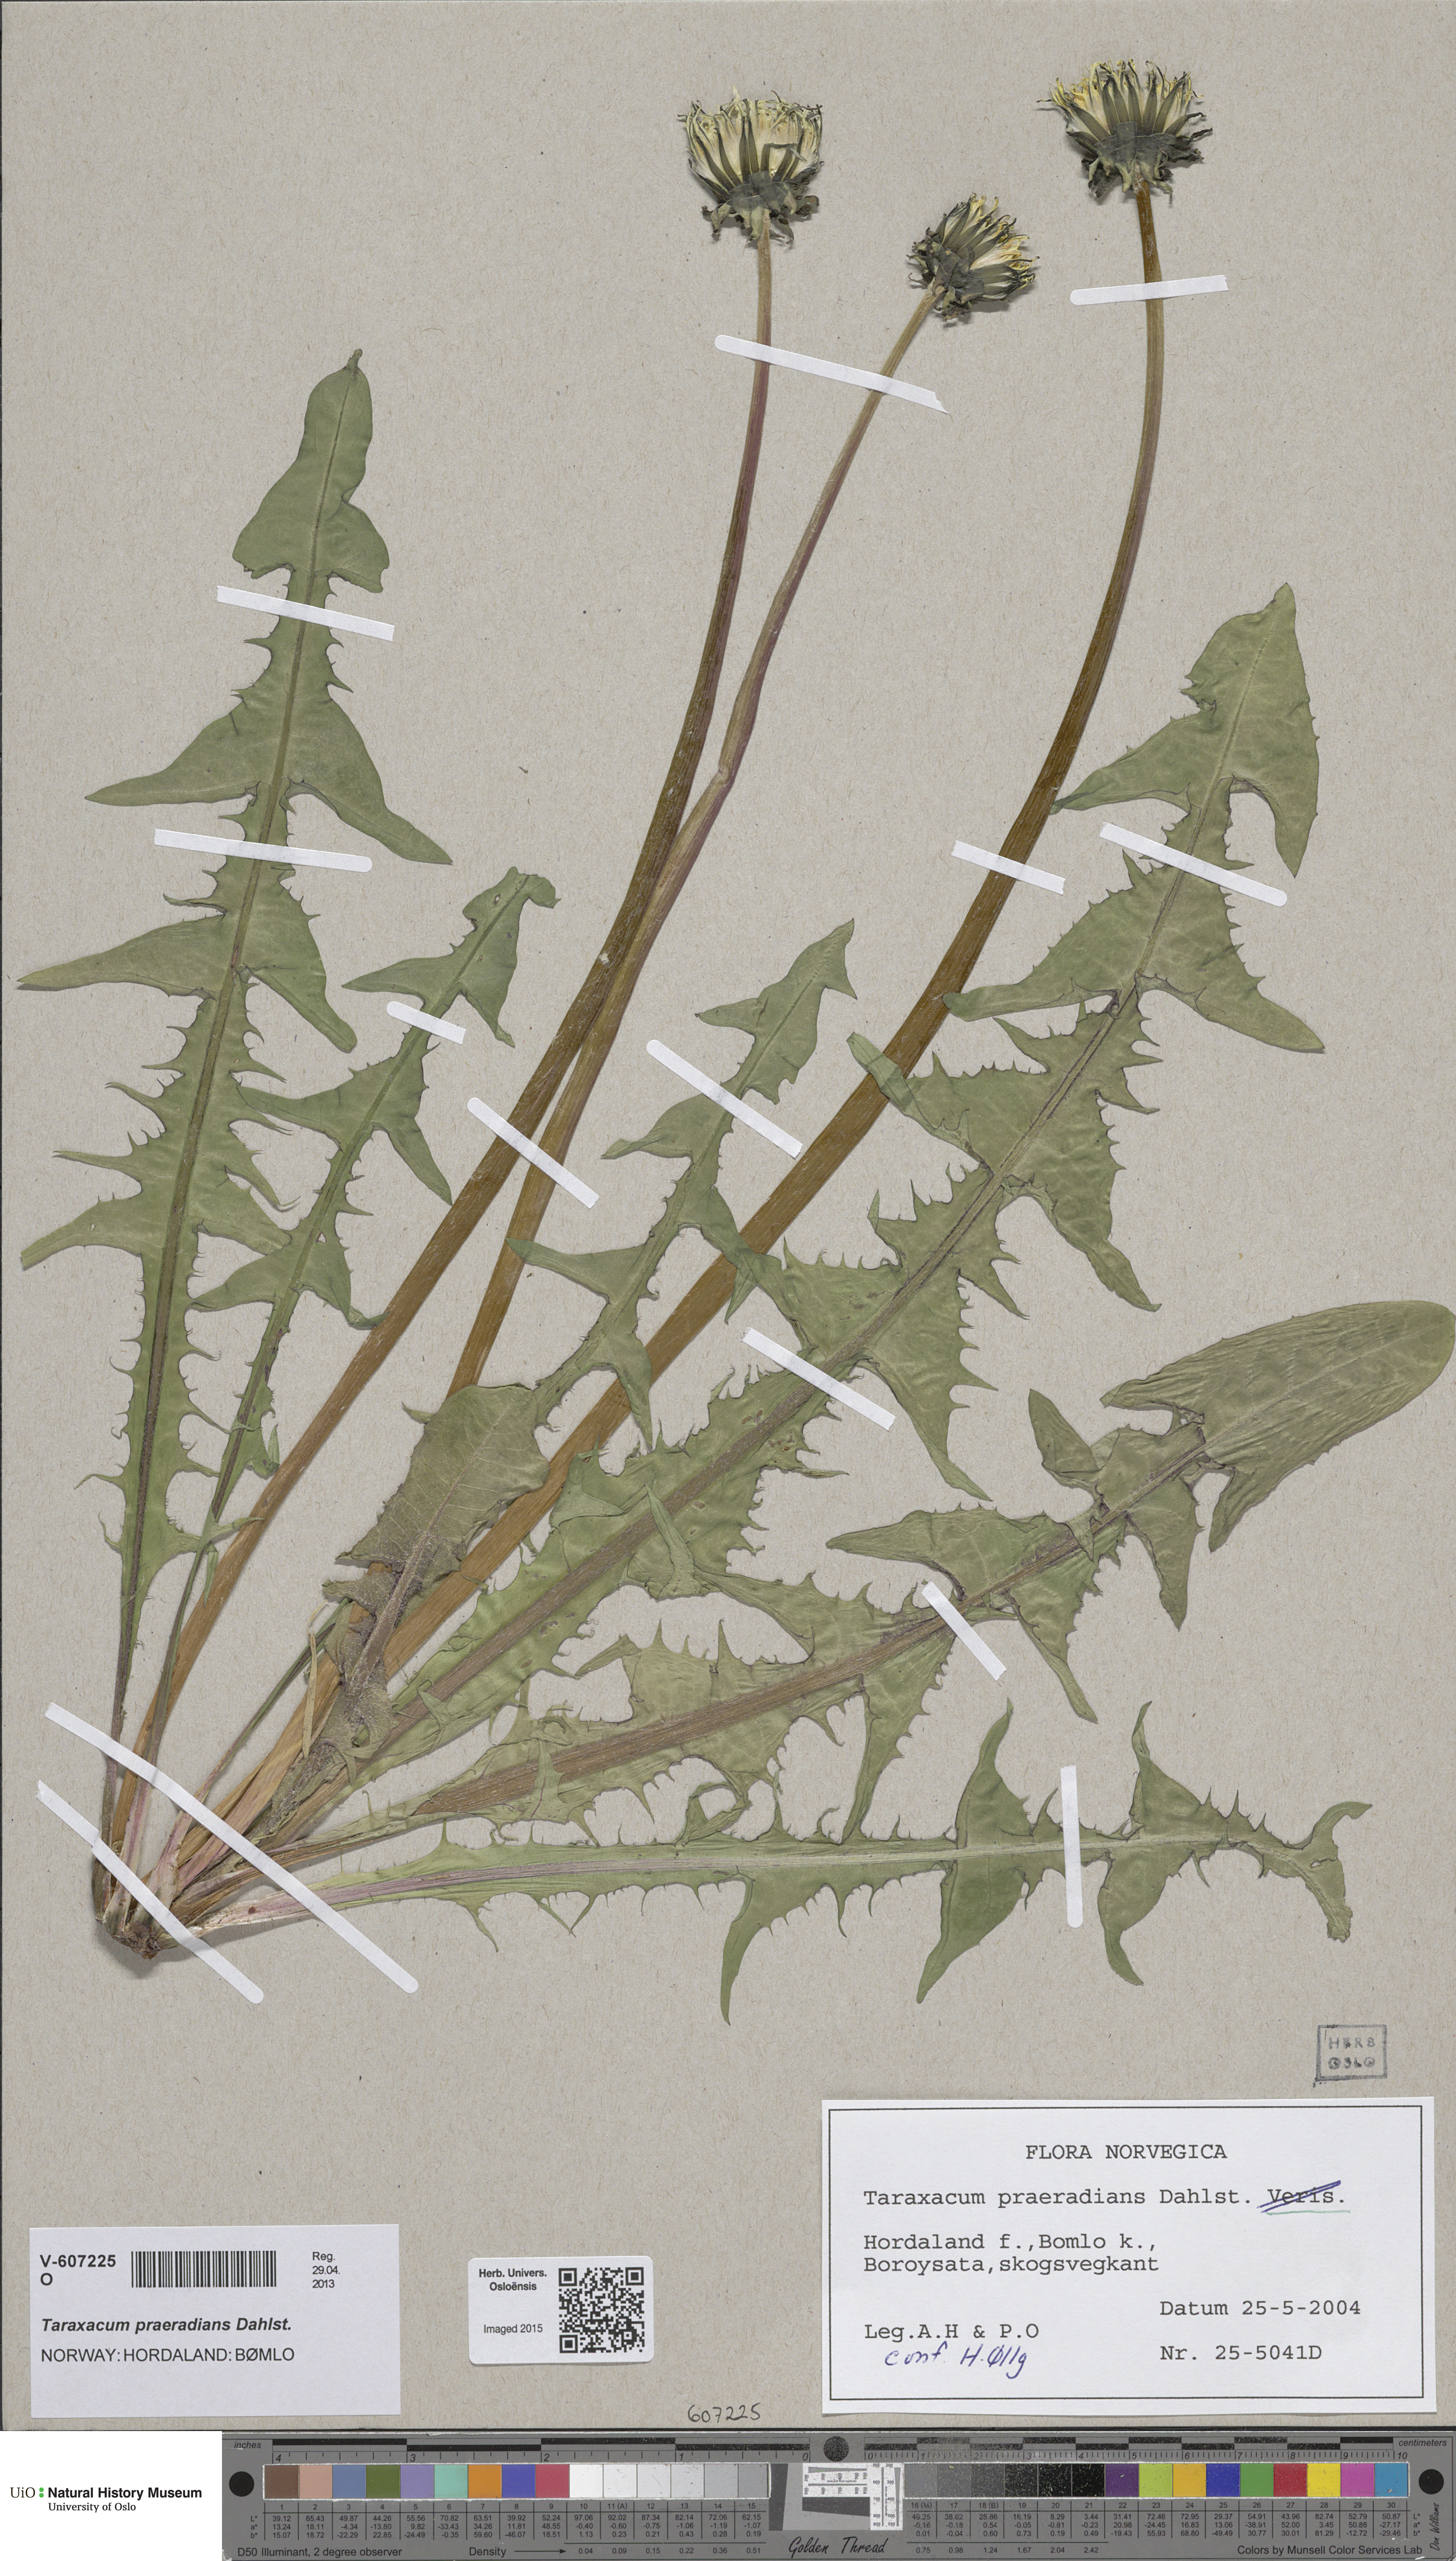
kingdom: Plantae
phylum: Tracheophyta
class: Magnoliopsida
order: Asterales
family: Asteraceae
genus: Taraxacum
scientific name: Taraxacum praeradians
